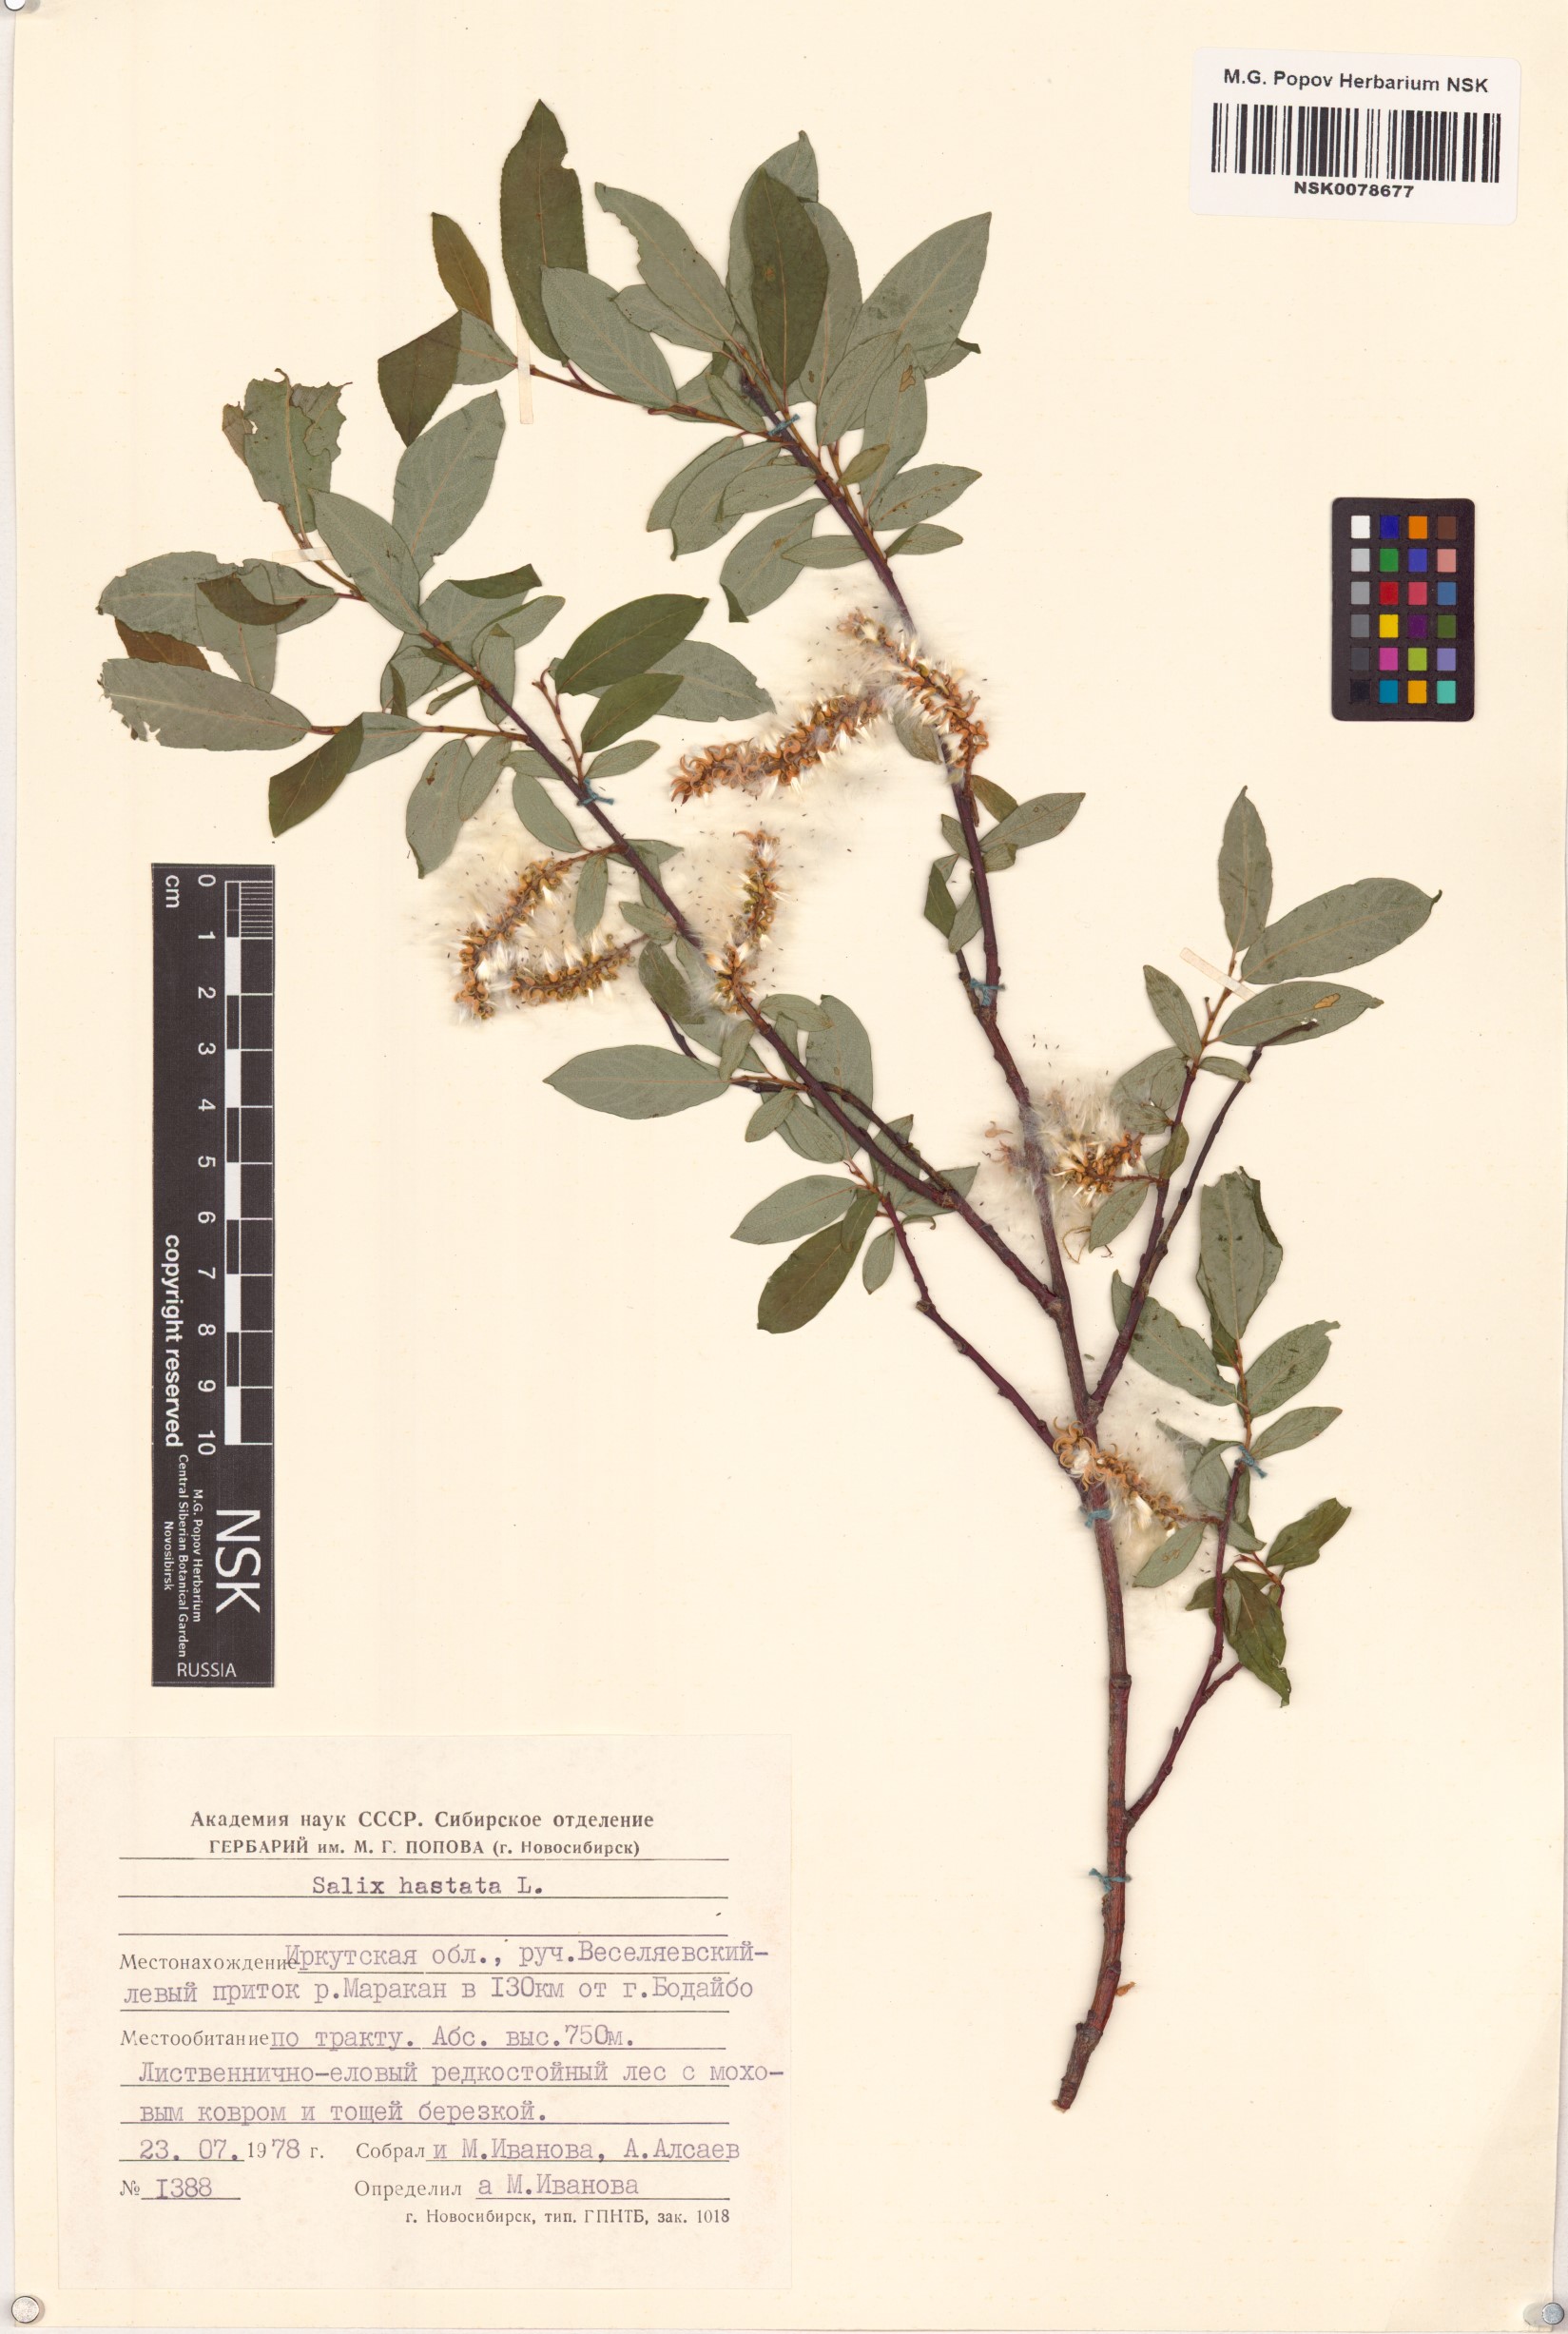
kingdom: Plantae
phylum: Tracheophyta
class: Magnoliopsida
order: Malpighiales
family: Salicaceae
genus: Salix
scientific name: Salix hastata
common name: Halberd willow
